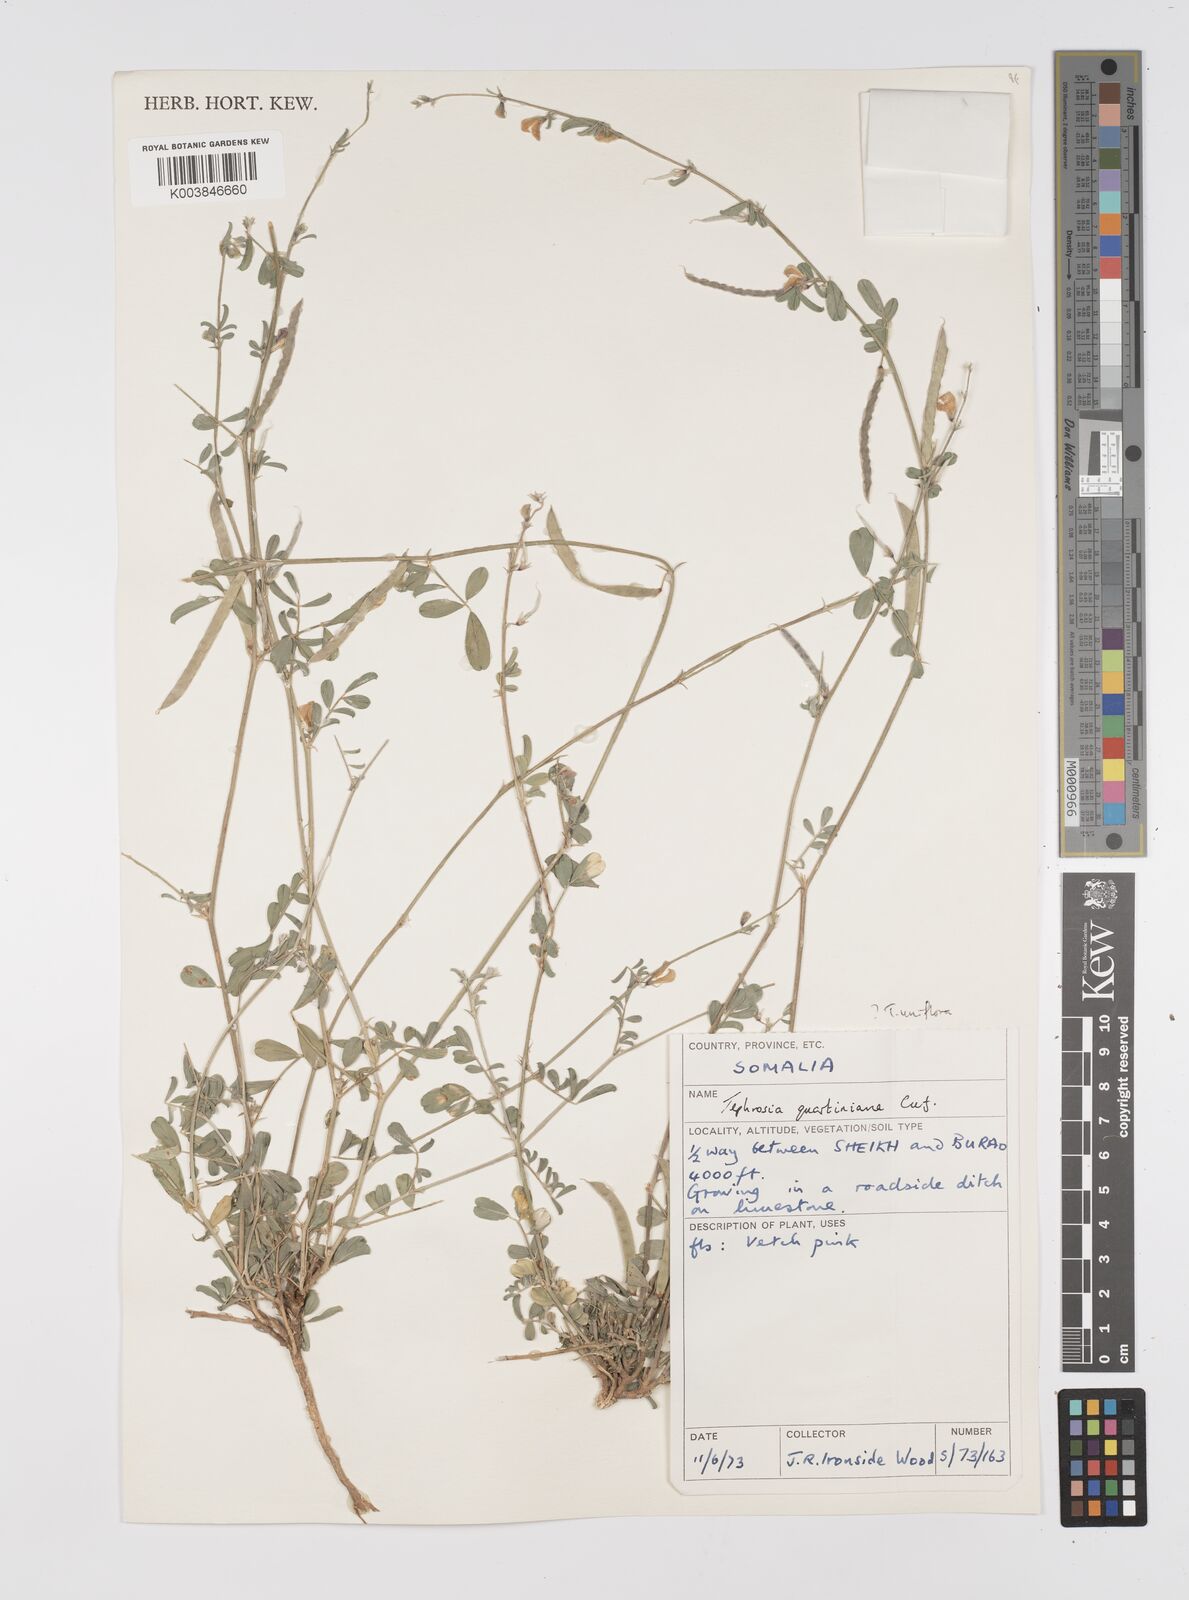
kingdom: Plantae
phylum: Tracheophyta
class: Magnoliopsida
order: Fabales
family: Fabaceae
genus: Tephrosia
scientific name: Tephrosia uniflora
